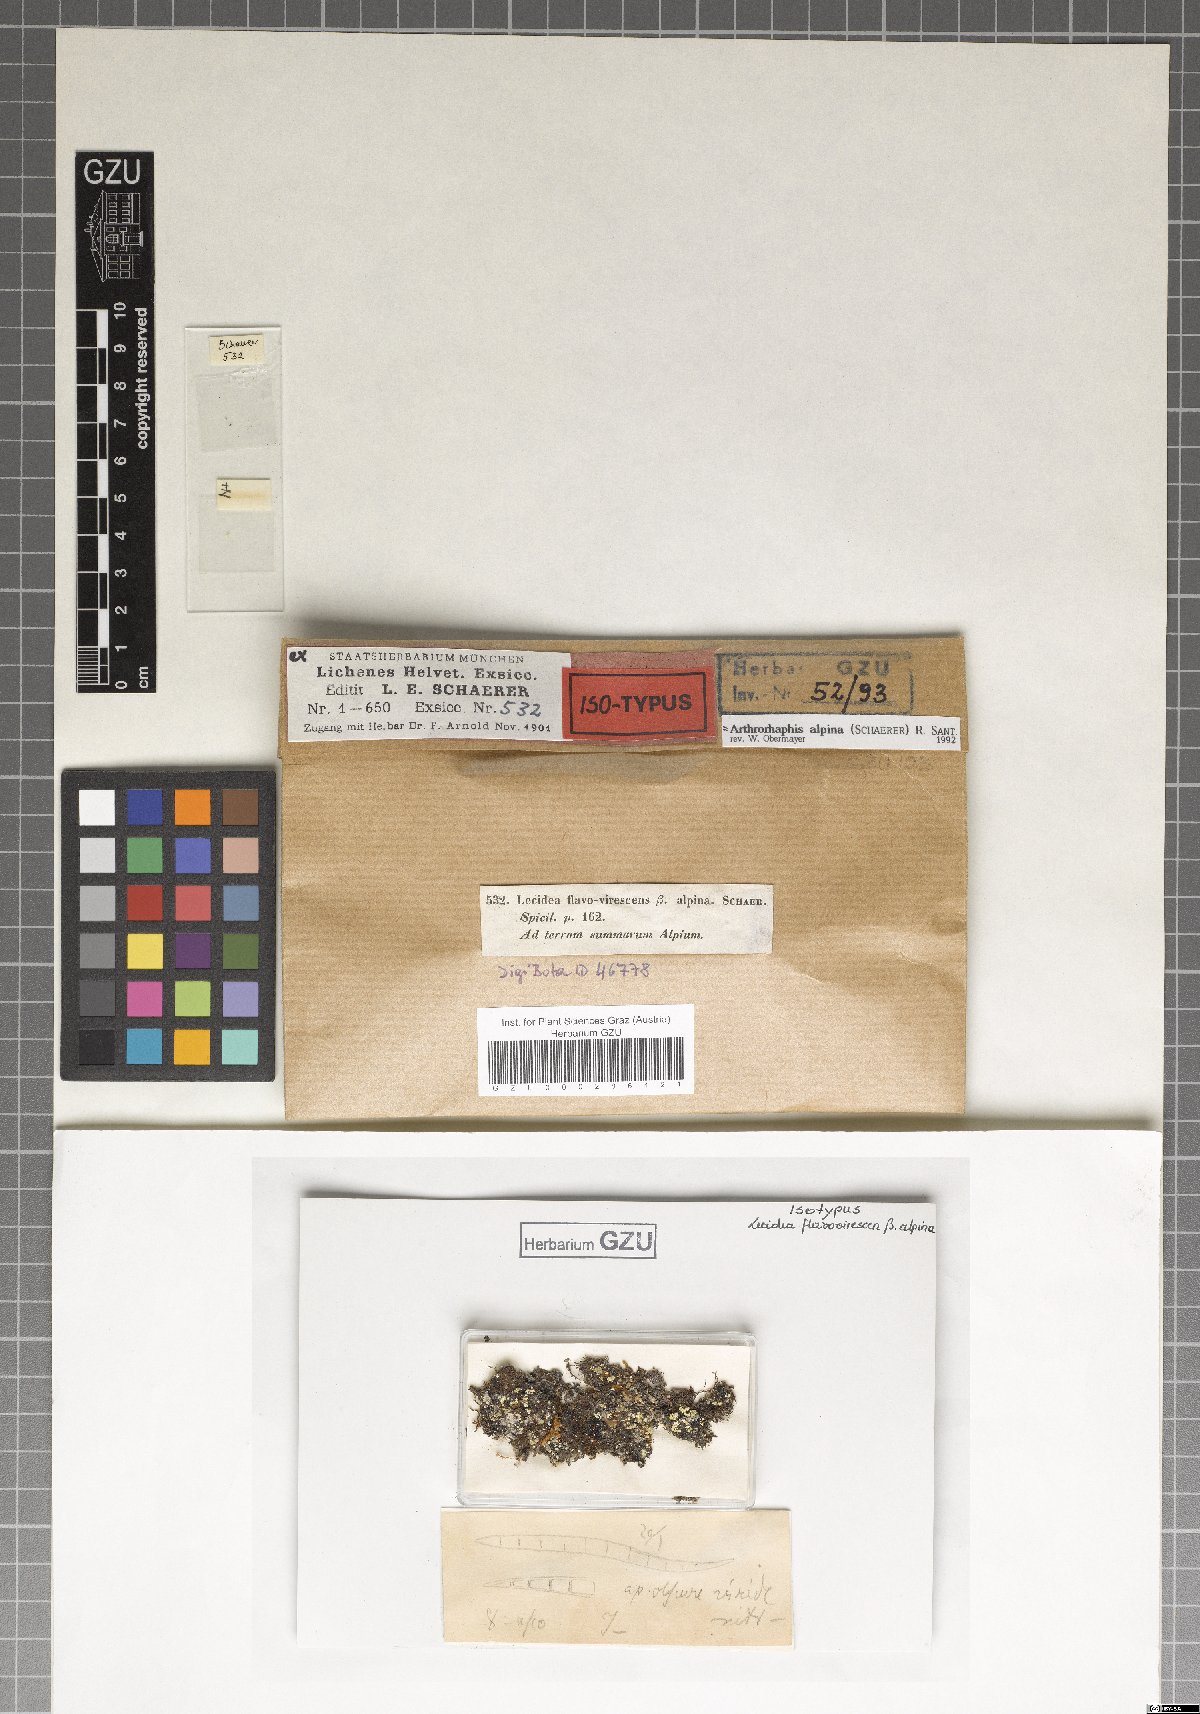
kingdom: Fungi
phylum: Ascomycota
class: Lecanoromycetes
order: Umbilicariales
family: Arthrorhaphidaceae
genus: Arthrorhaphis
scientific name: Arthrorhaphis alpina
